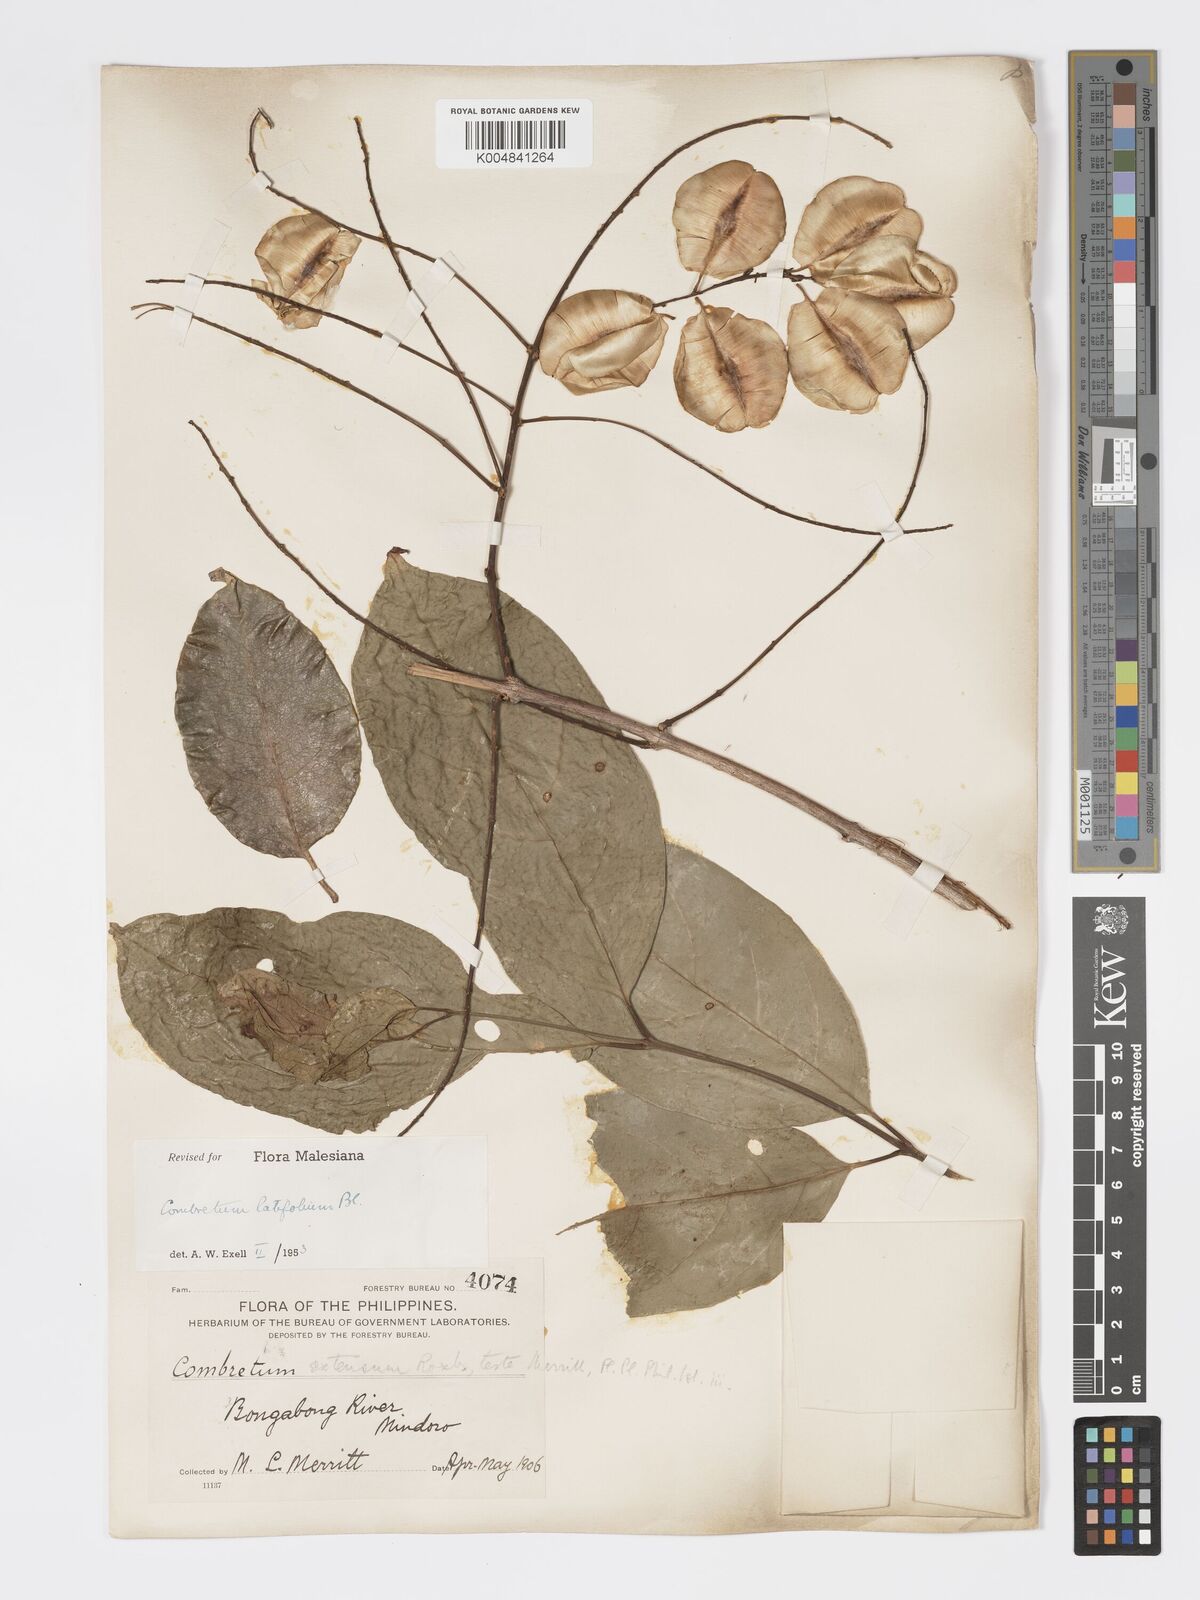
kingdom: Plantae
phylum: Tracheophyta
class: Magnoliopsida
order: Myrtales
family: Combretaceae
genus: Combretum
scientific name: Combretum
